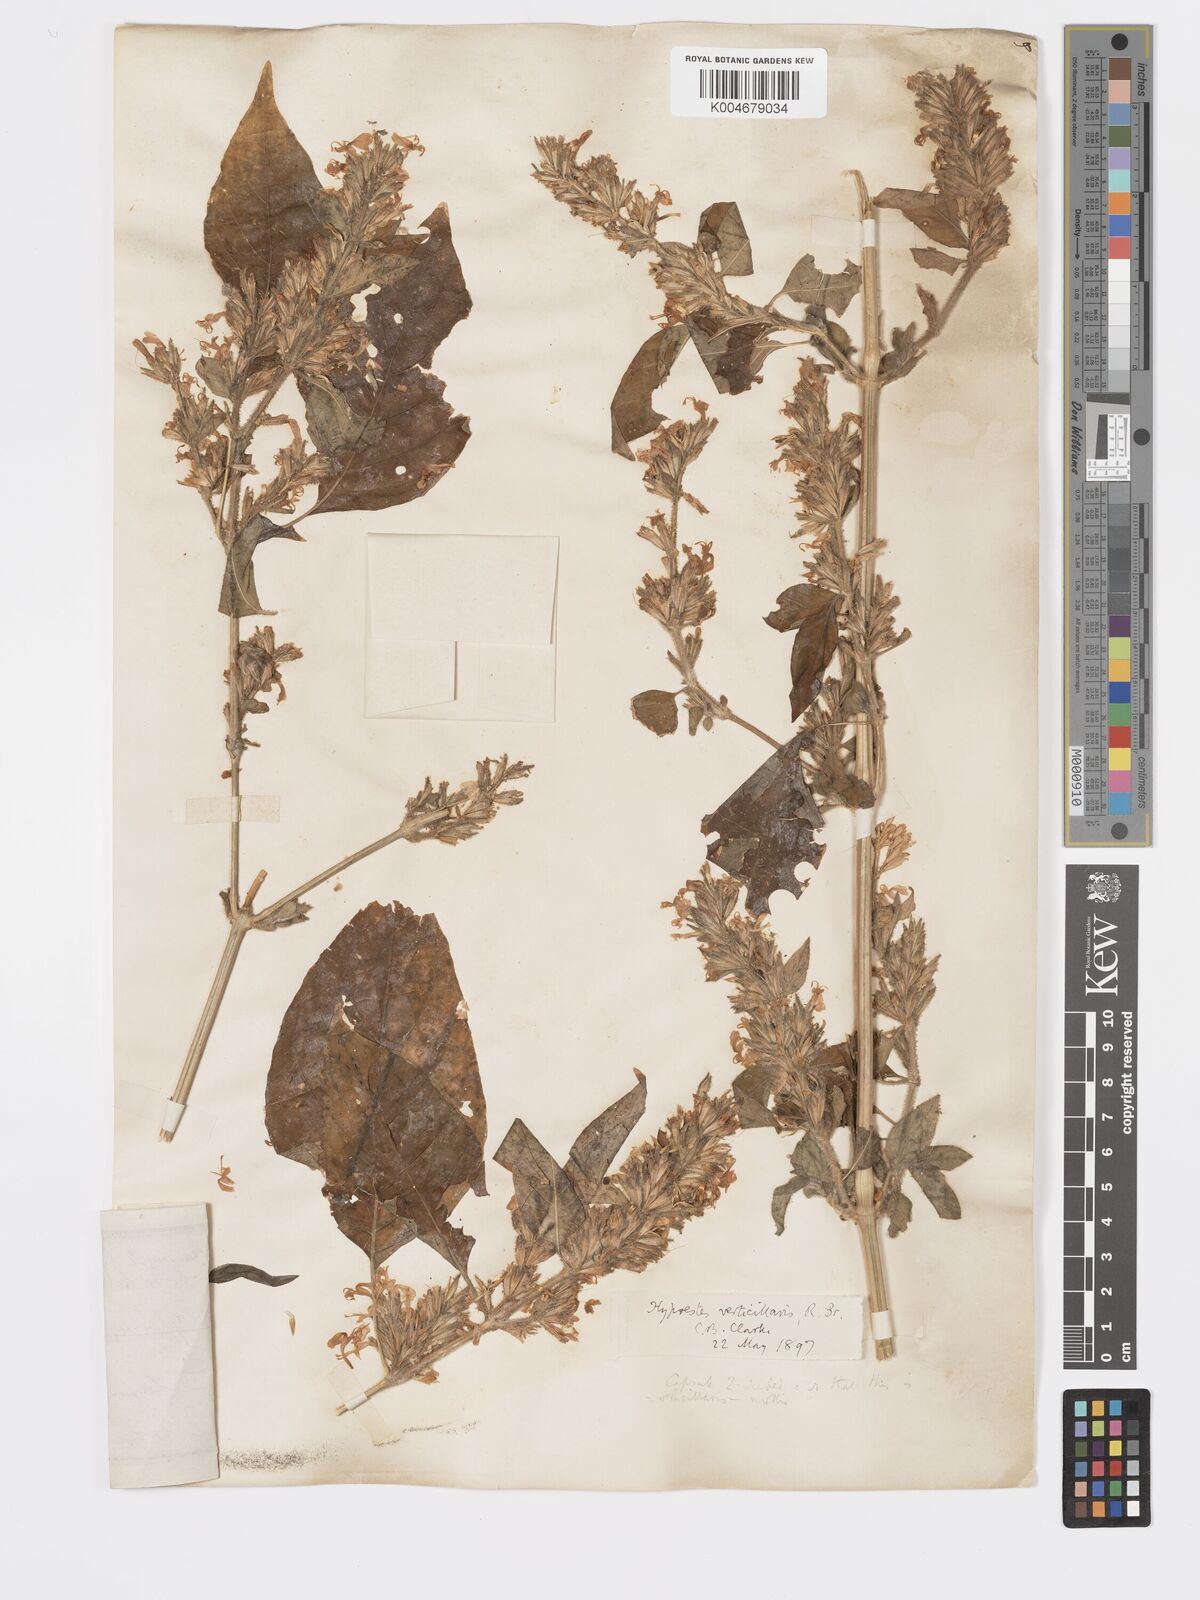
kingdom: Plantae
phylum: Tracheophyta
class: Magnoliopsida
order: Lamiales
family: Acanthaceae
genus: Hypoestes
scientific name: Hypoestes forskaolii
